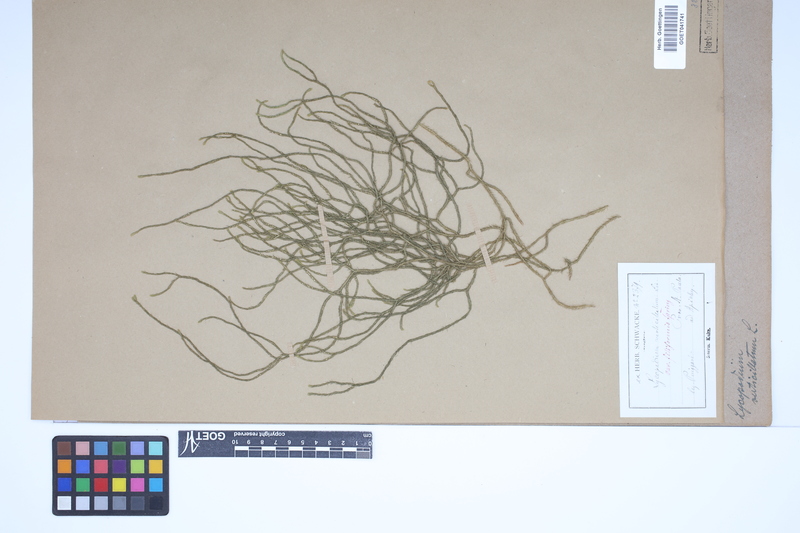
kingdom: Plantae
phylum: Tracheophyta
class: Lycopodiopsida
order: Lycopodiales
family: Lycopodiaceae
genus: Phlegmariurus
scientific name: Phlegmariurus verticillatus
